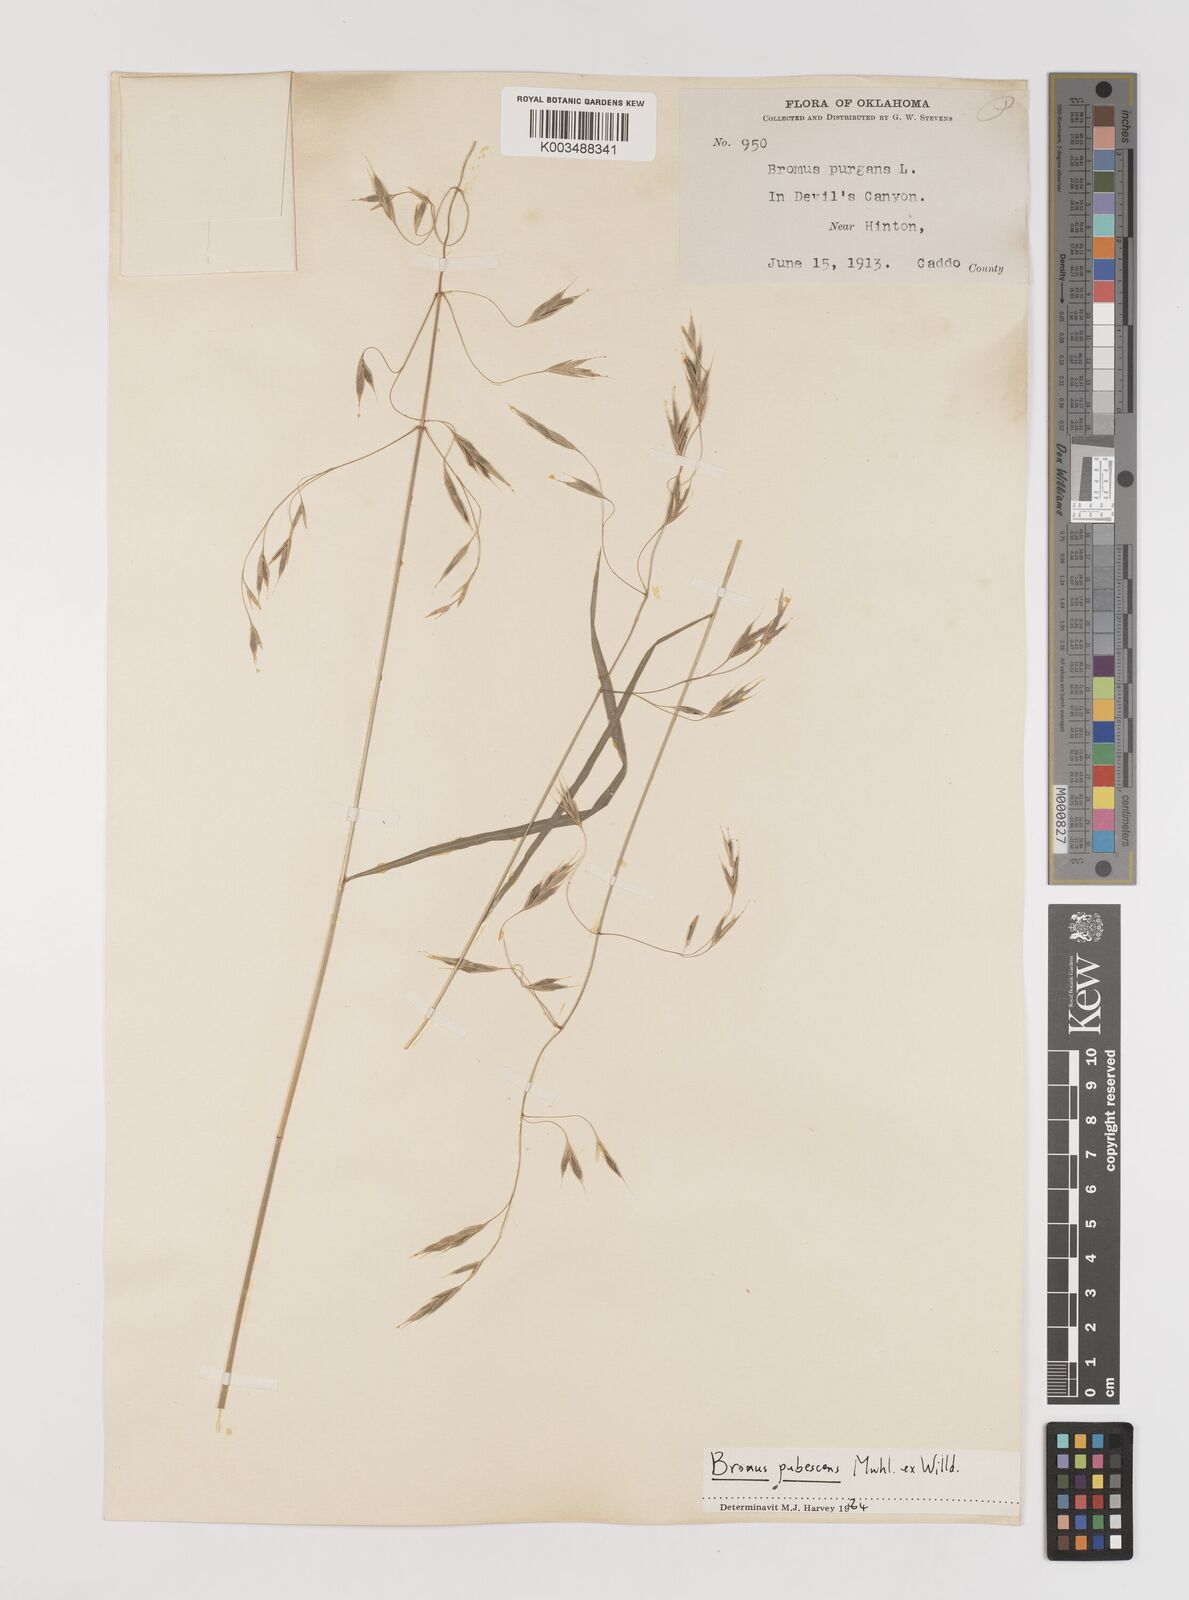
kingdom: Plantae
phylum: Tracheophyta
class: Liliopsida
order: Poales
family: Poaceae
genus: Bromus
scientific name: Bromus pubescens
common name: Hairy wood brome grass
